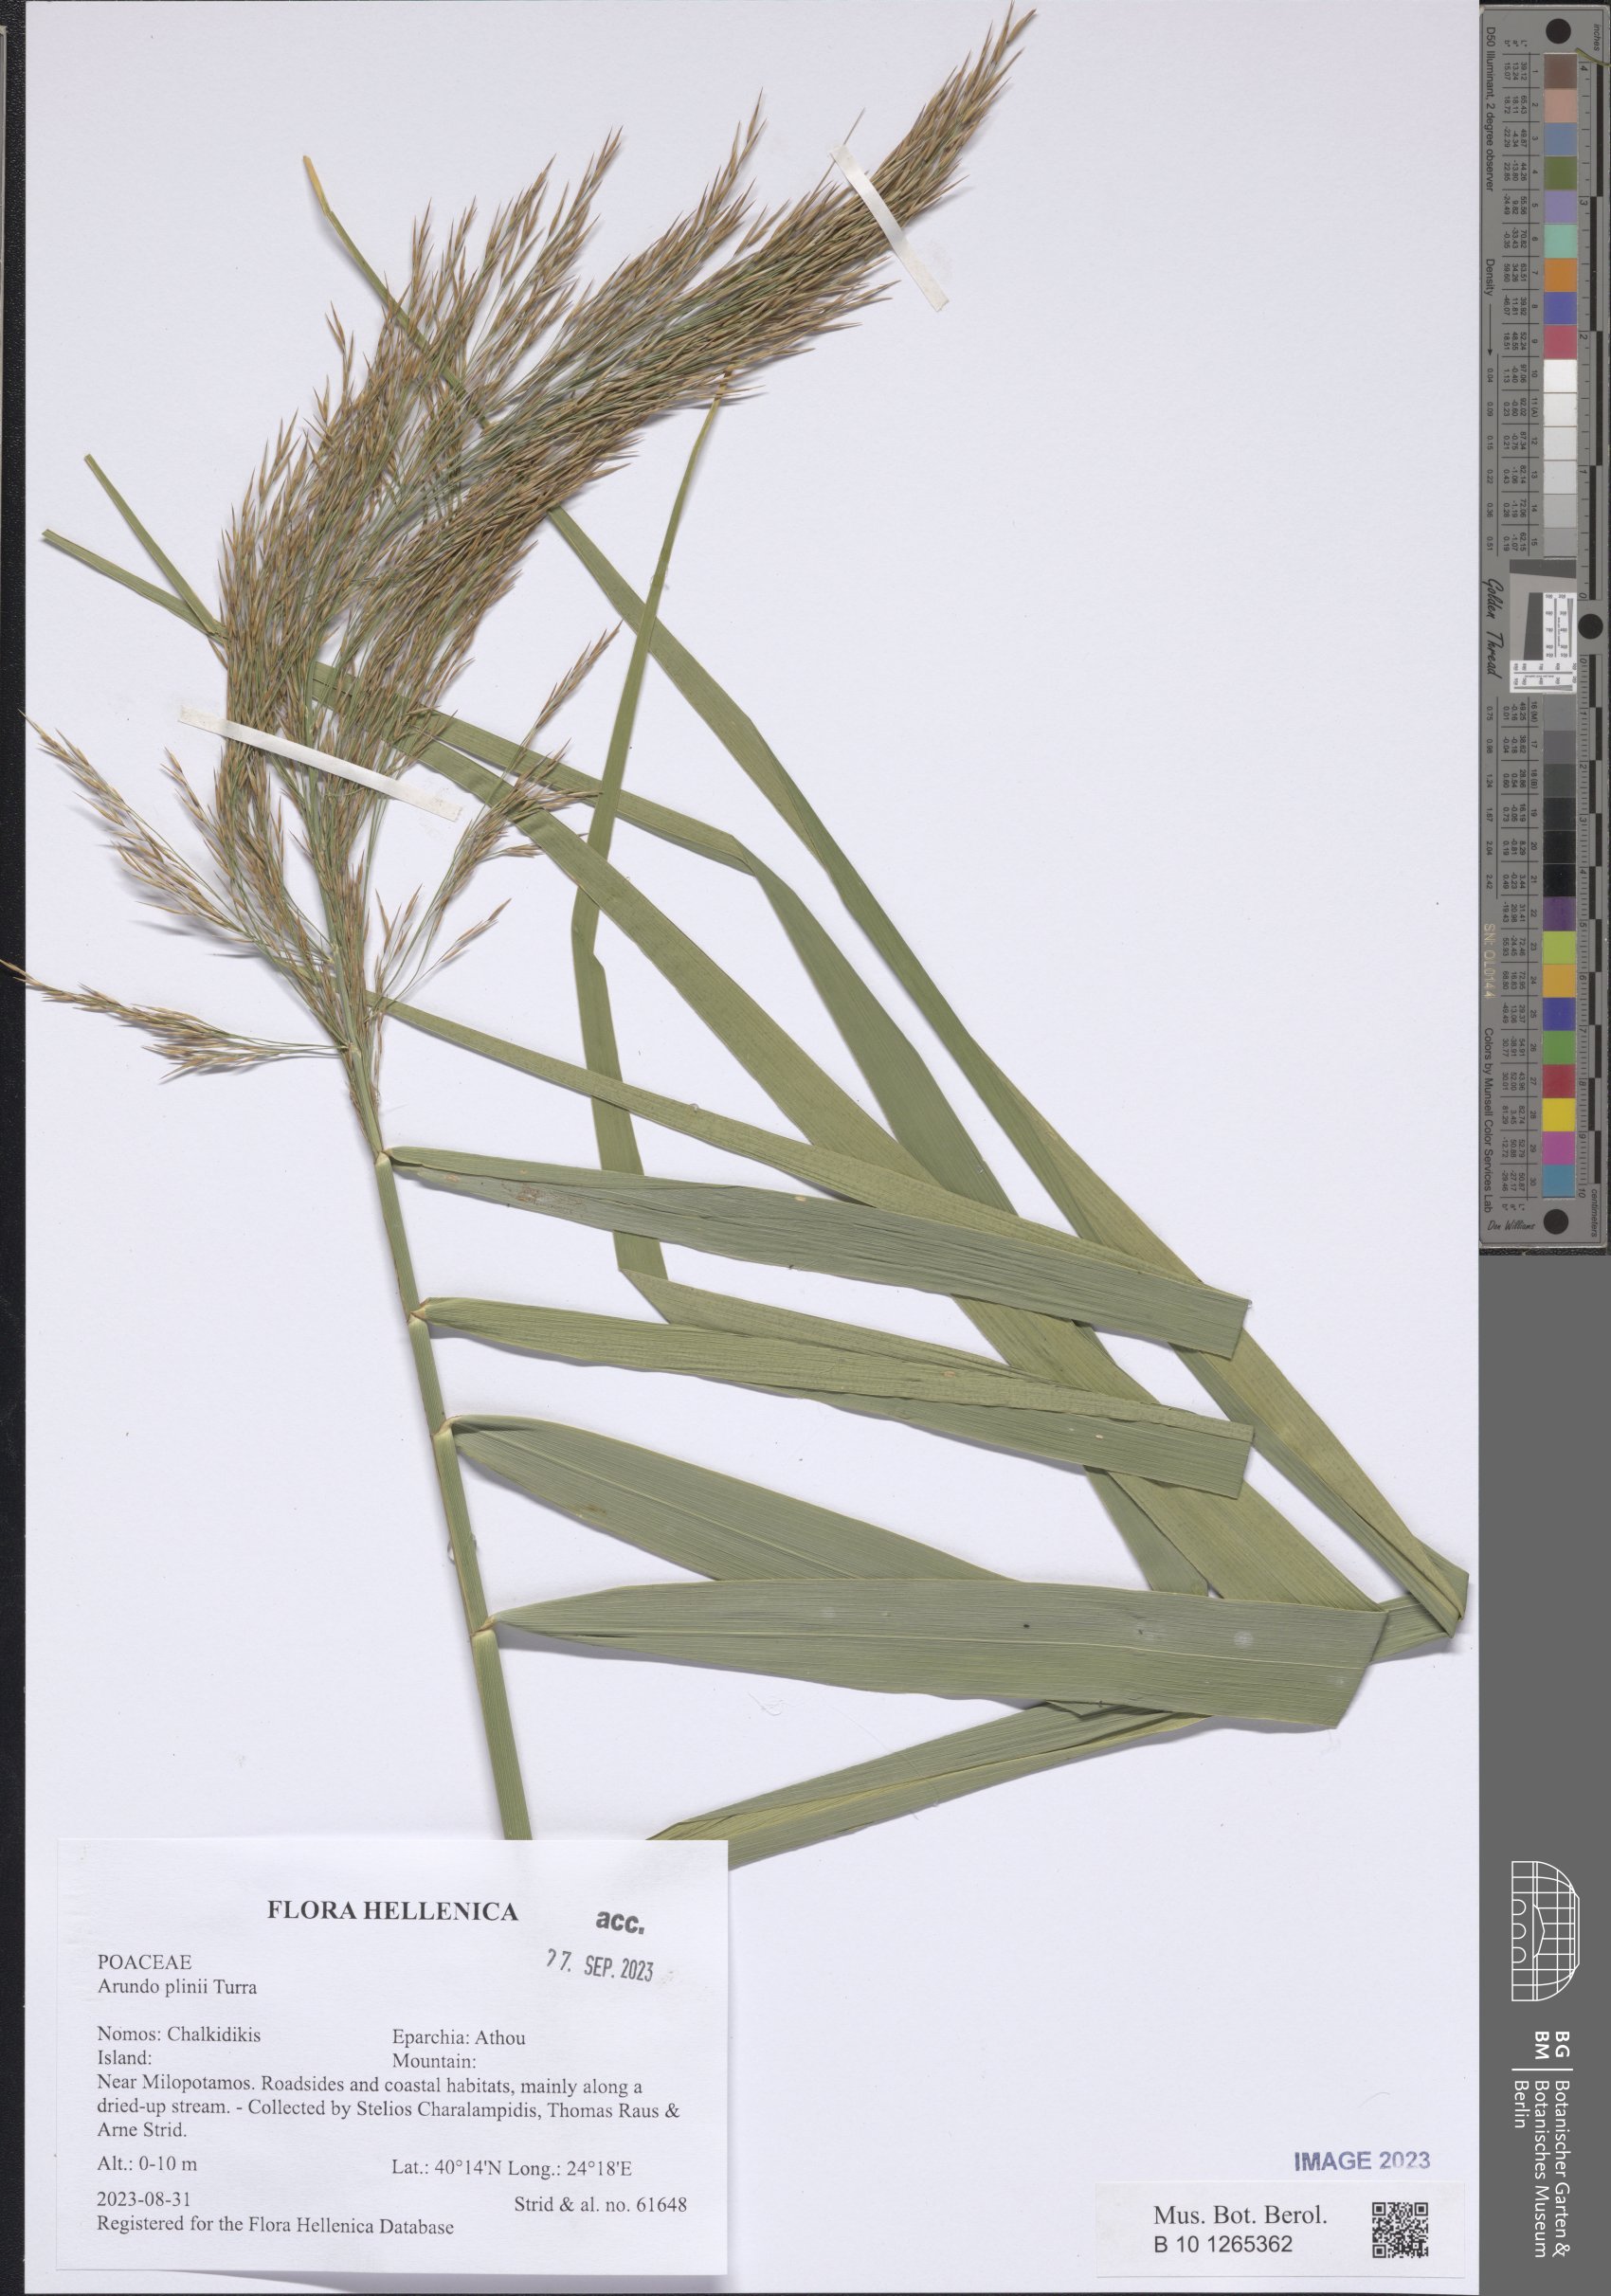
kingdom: Plantae
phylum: Tracheophyta
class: Liliopsida
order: Poales
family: Poaceae
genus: Arundo
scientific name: Arundo plinii
